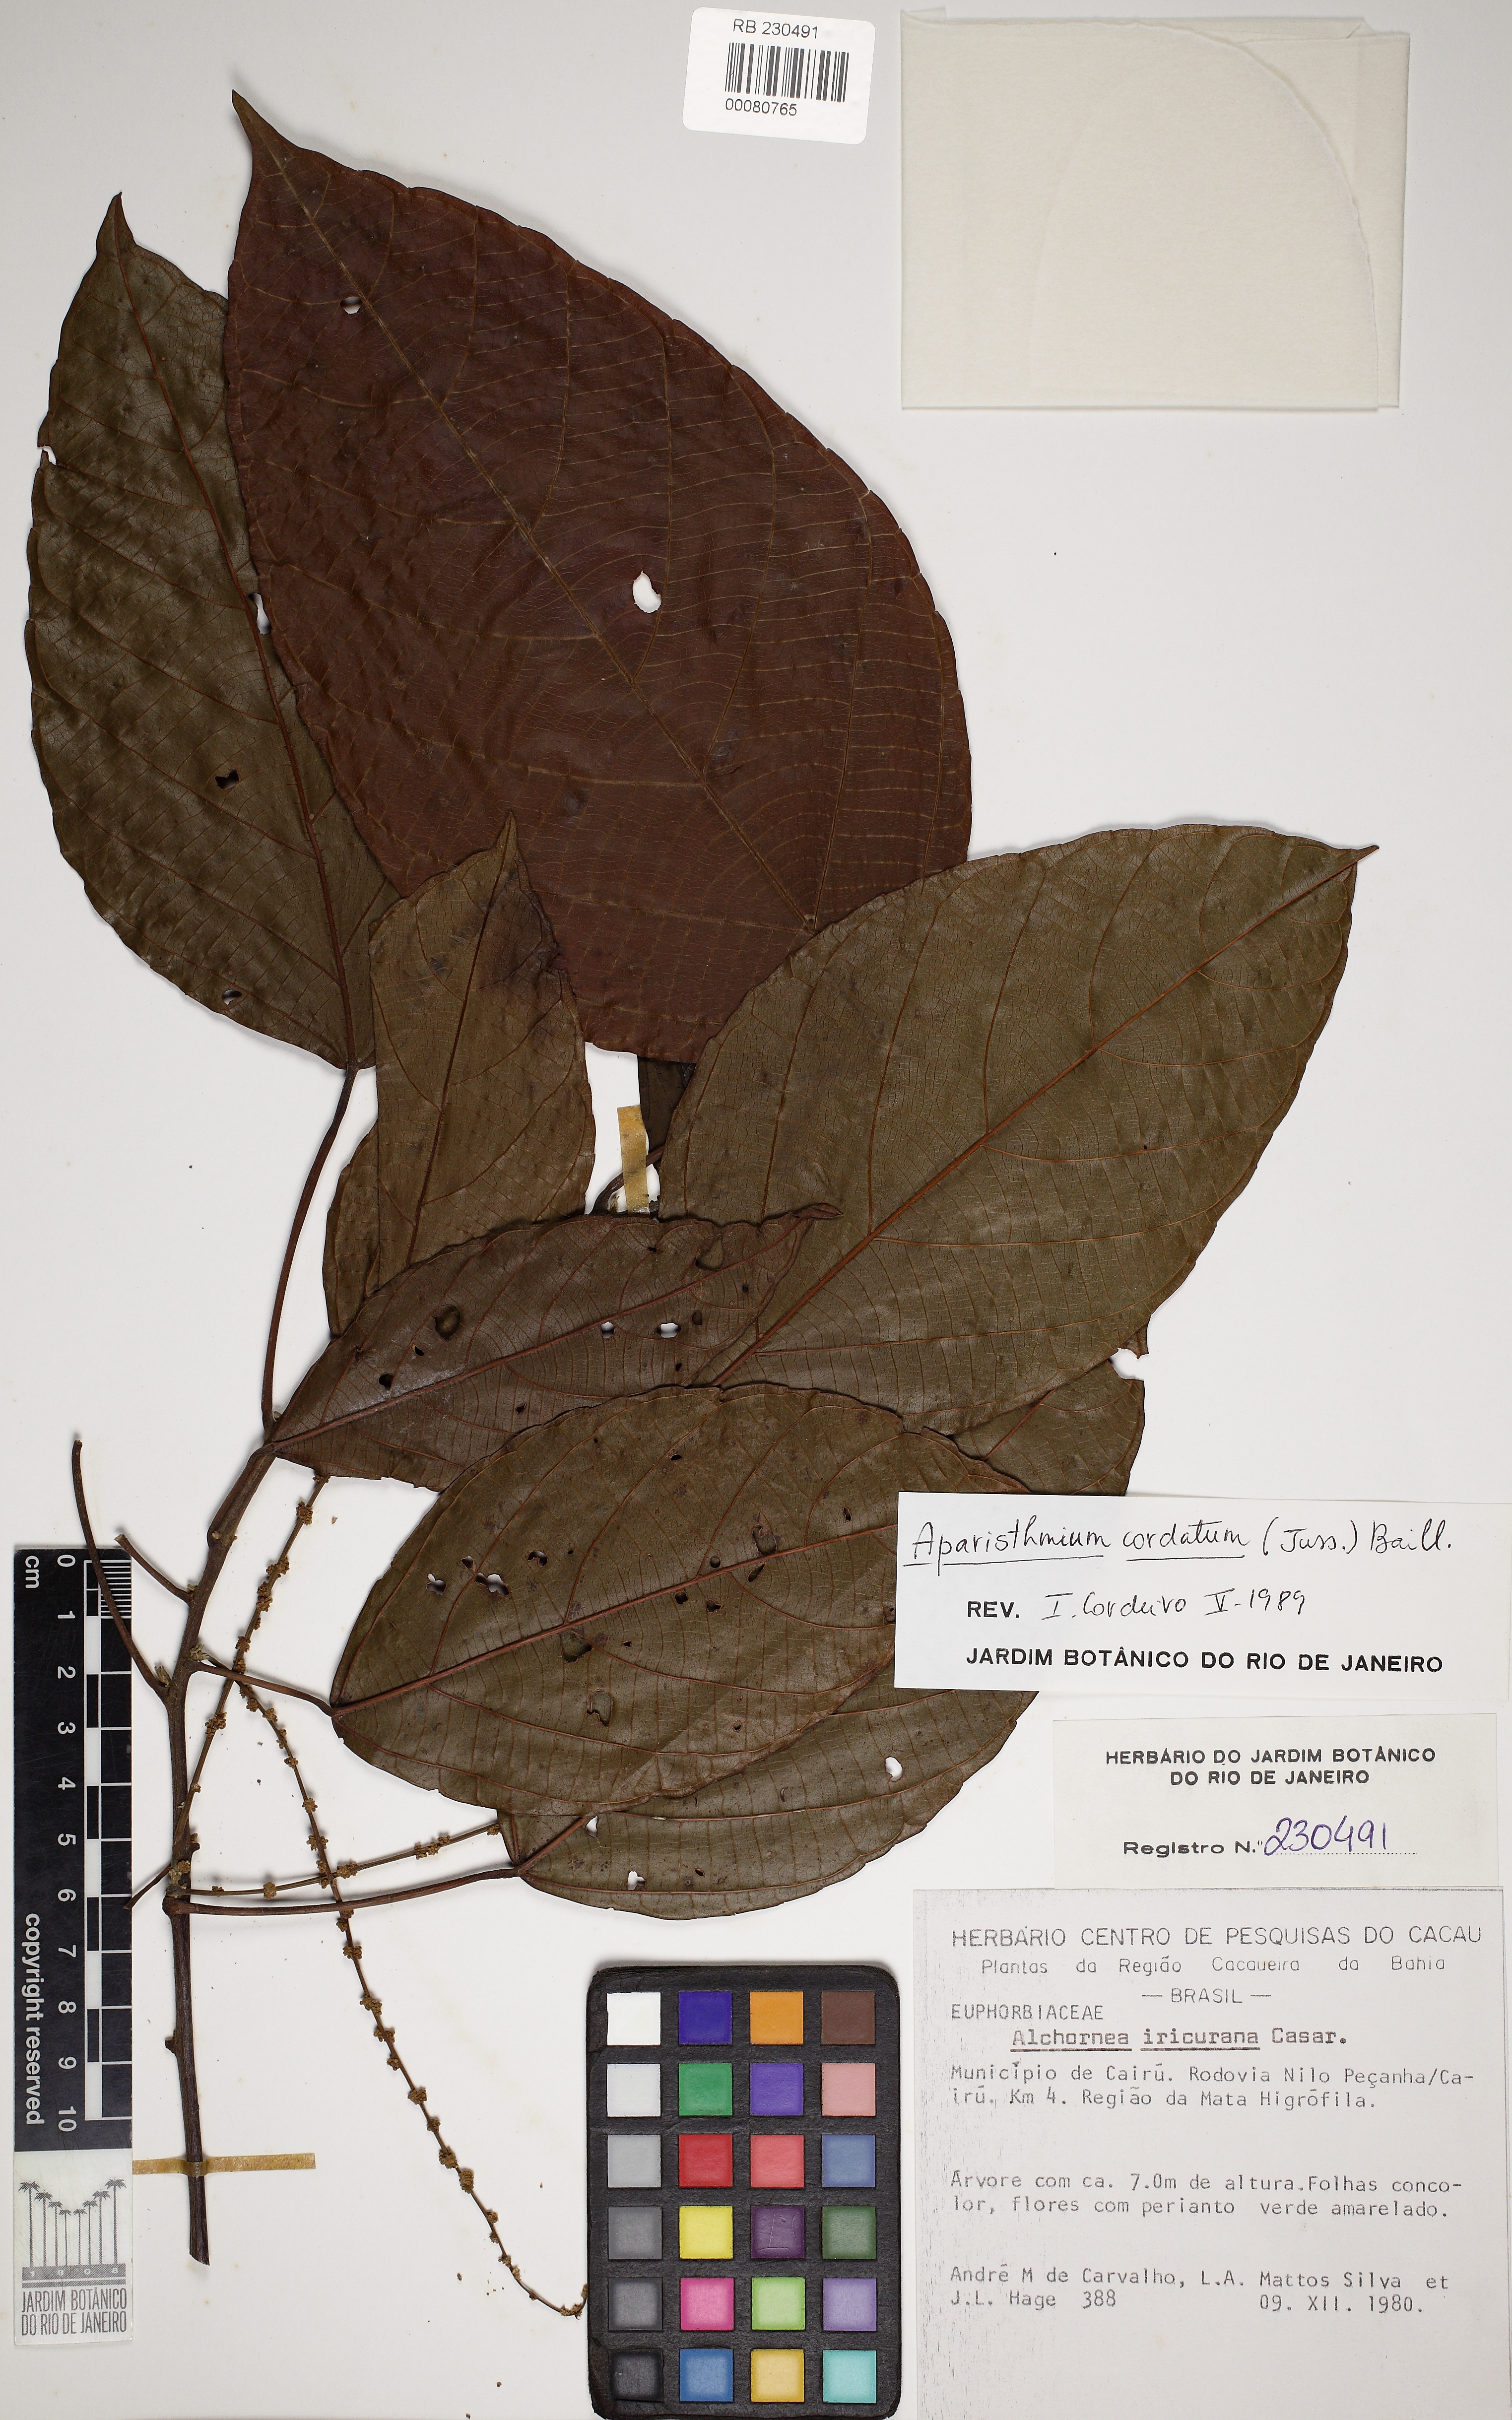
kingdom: Plantae
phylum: Tracheophyta
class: Magnoliopsida
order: Malpighiales
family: Euphorbiaceae
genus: Aparisthmium
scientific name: Aparisthmium cordatum
